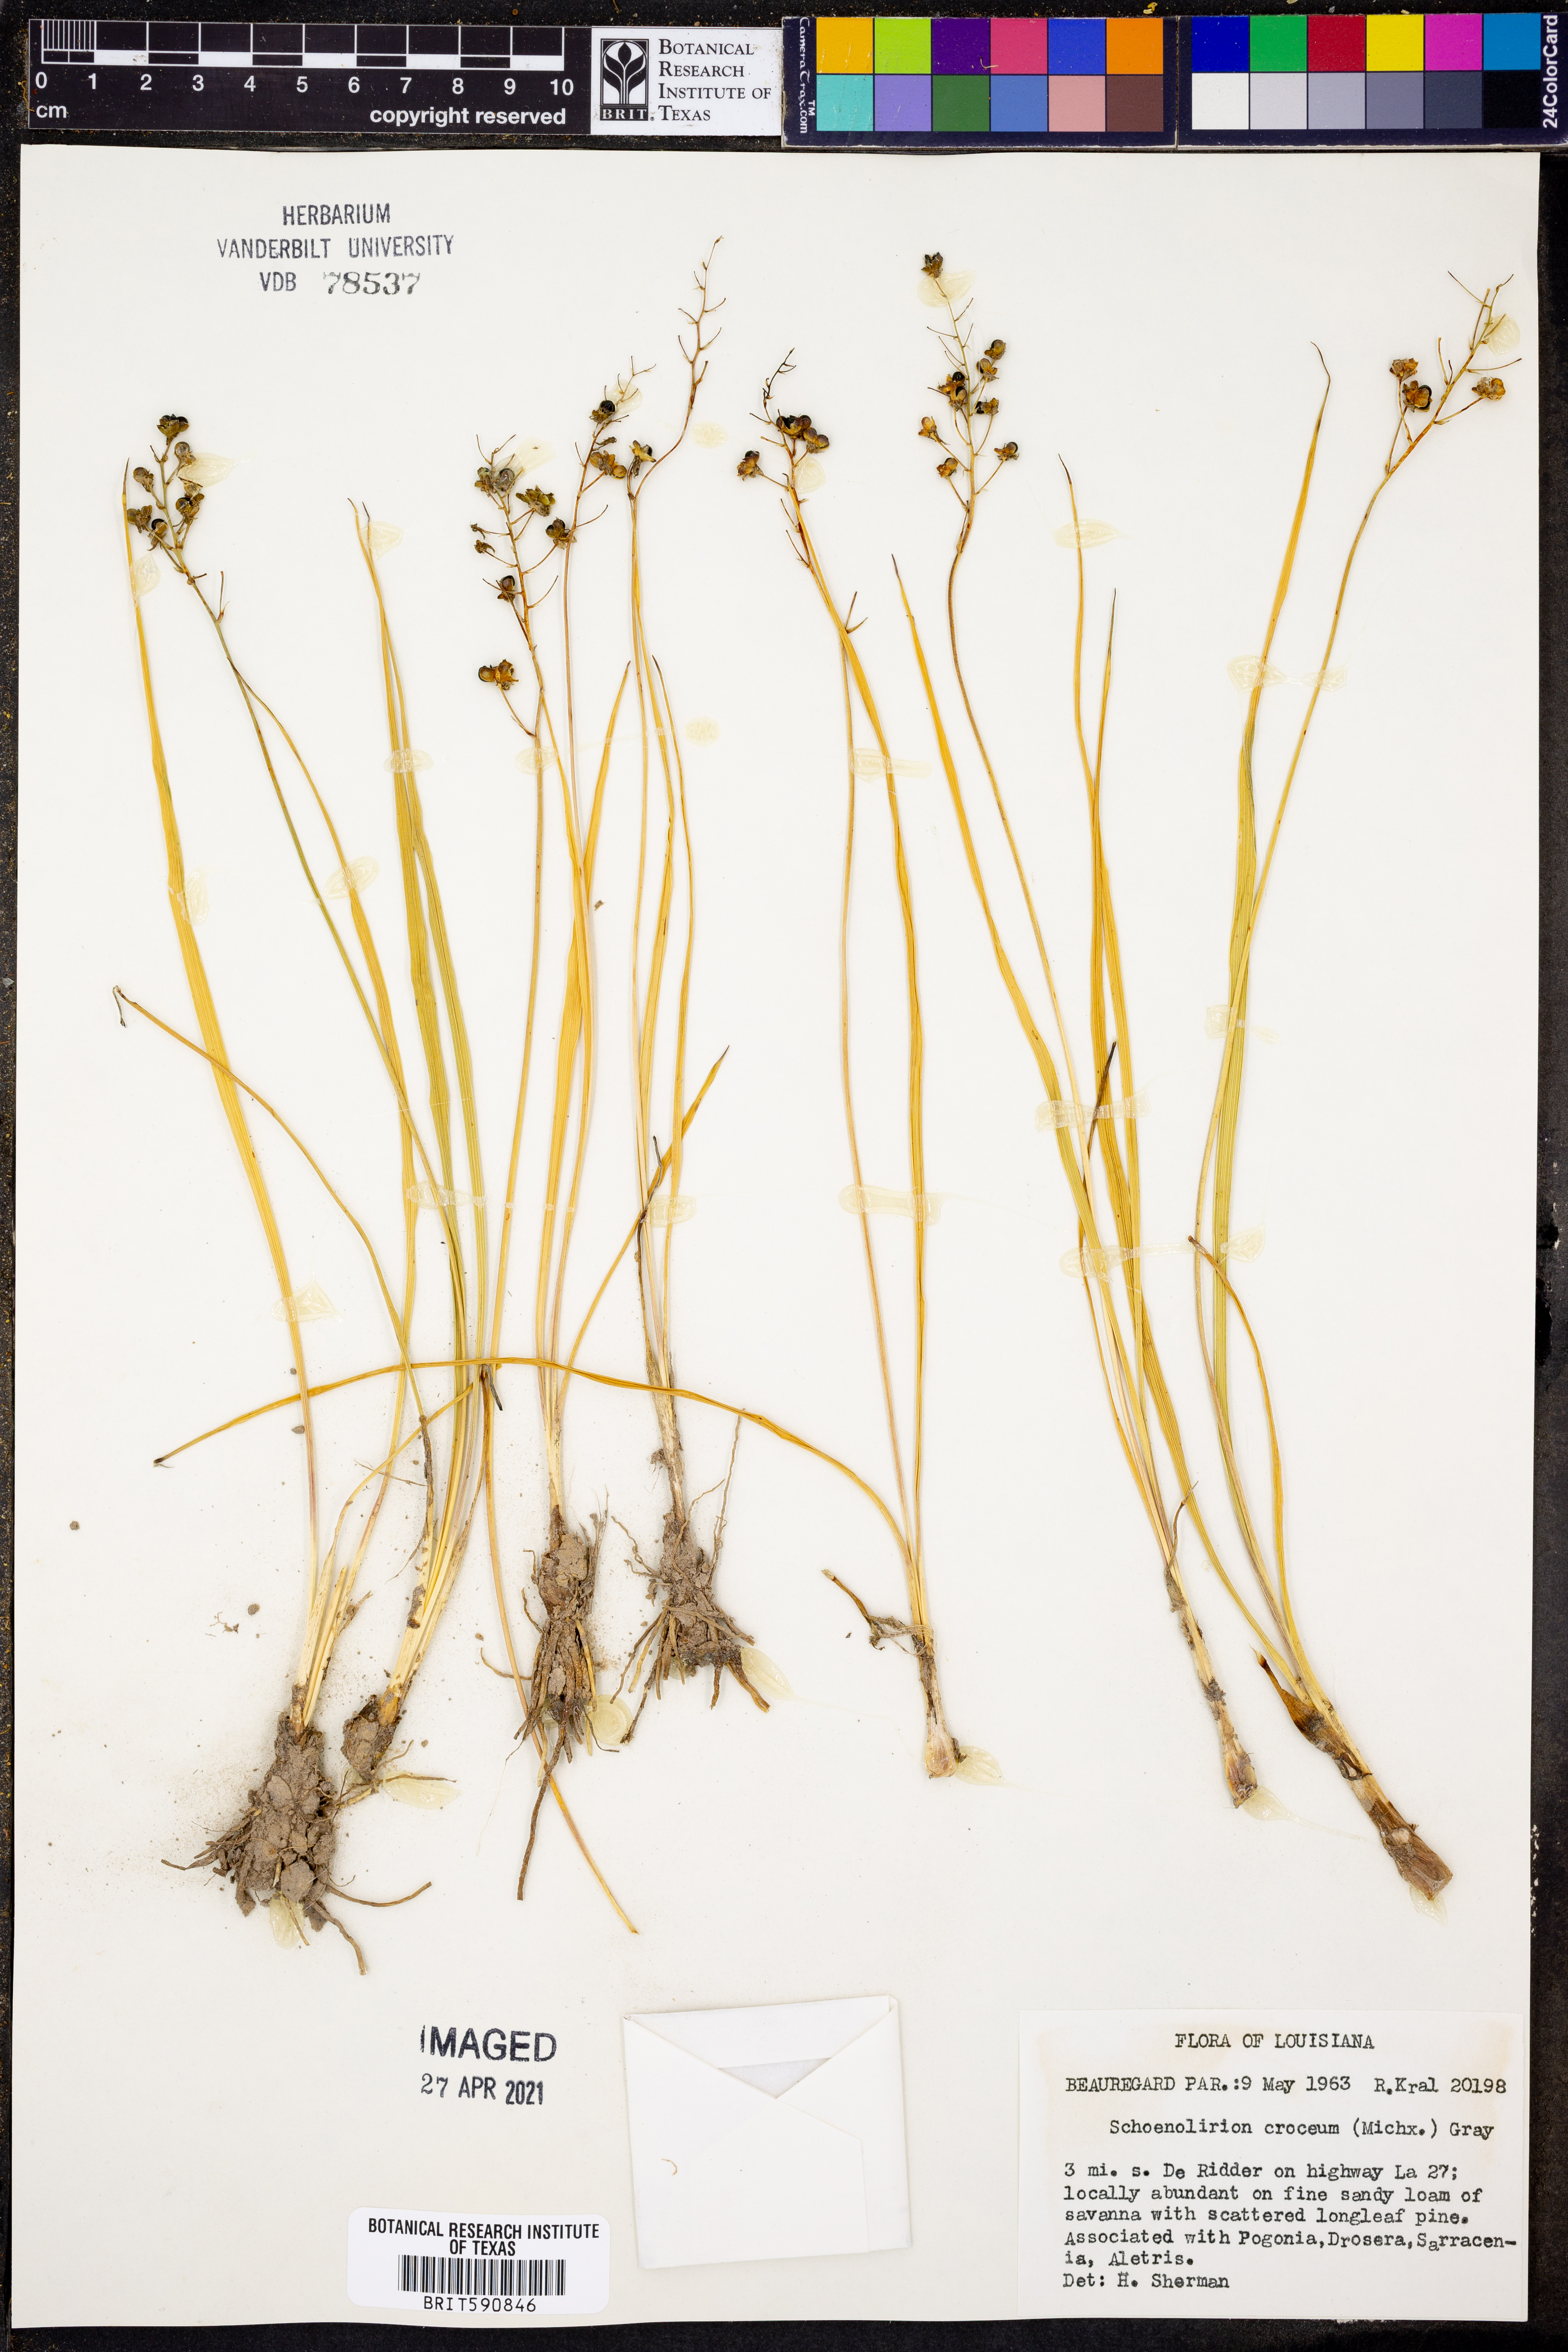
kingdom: Plantae
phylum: Tracheophyta
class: Liliopsida
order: Asparagales
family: Asparagaceae
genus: Schoenolirion
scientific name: Schoenolirion croceum
